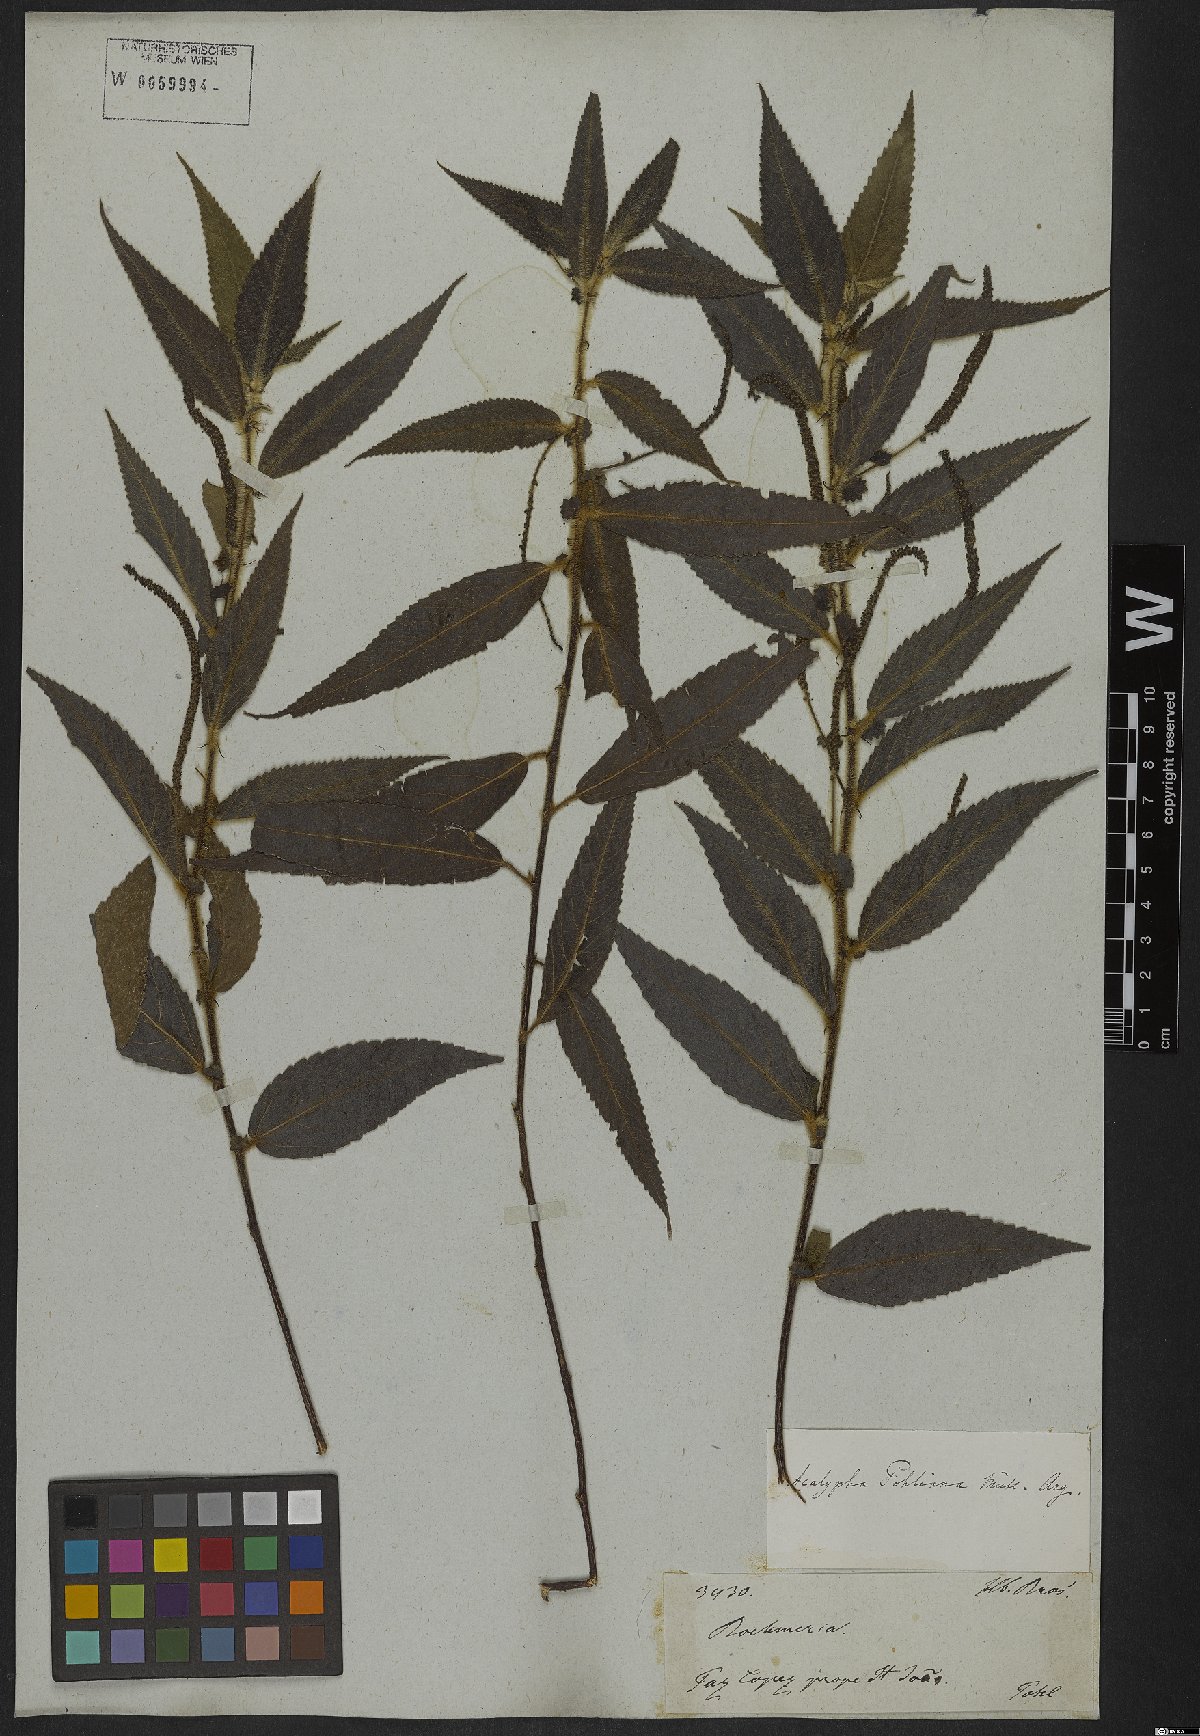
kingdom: Plantae
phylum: Tracheophyta
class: Magnoliopsida
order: Malpighiales
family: Euphorbiaceae
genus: Acalypha
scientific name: Acalypha pohliana
